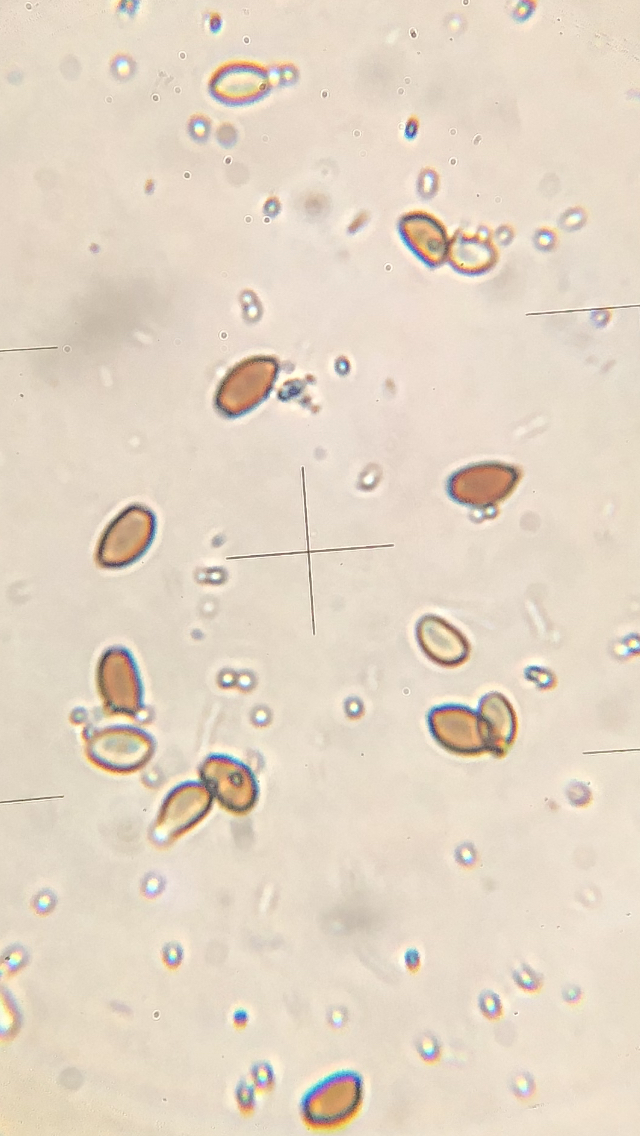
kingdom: Fungi
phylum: Basidiomycota
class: Agaricomycetes
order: Agaricales
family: Psathyrellaceae
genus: Coprinellus
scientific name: Coprinellus disseminatus
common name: bredsået blækhat
